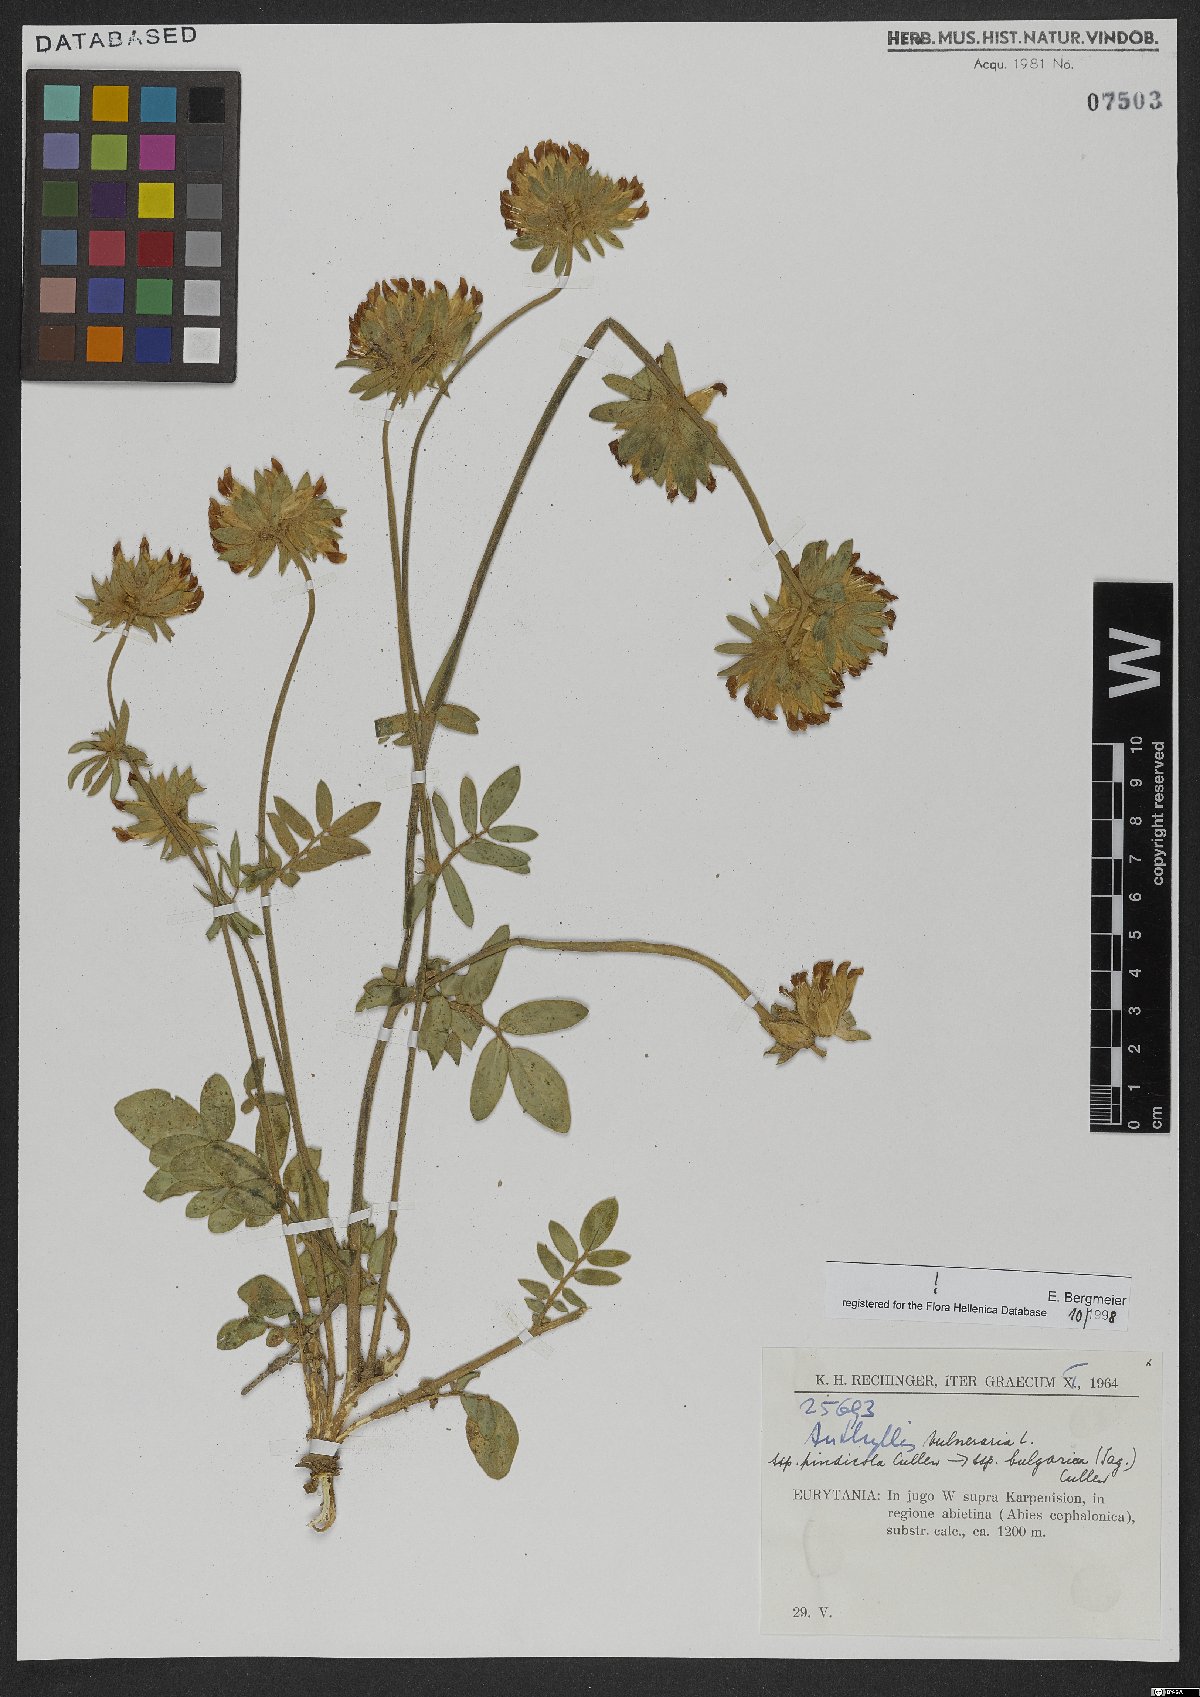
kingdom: Plantae
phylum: Tracheophyta
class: Magnoliopsida
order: Fabales
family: Fabaceae
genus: Anthyllis
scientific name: Anthyllis vulneraria
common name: Kidney vetch
